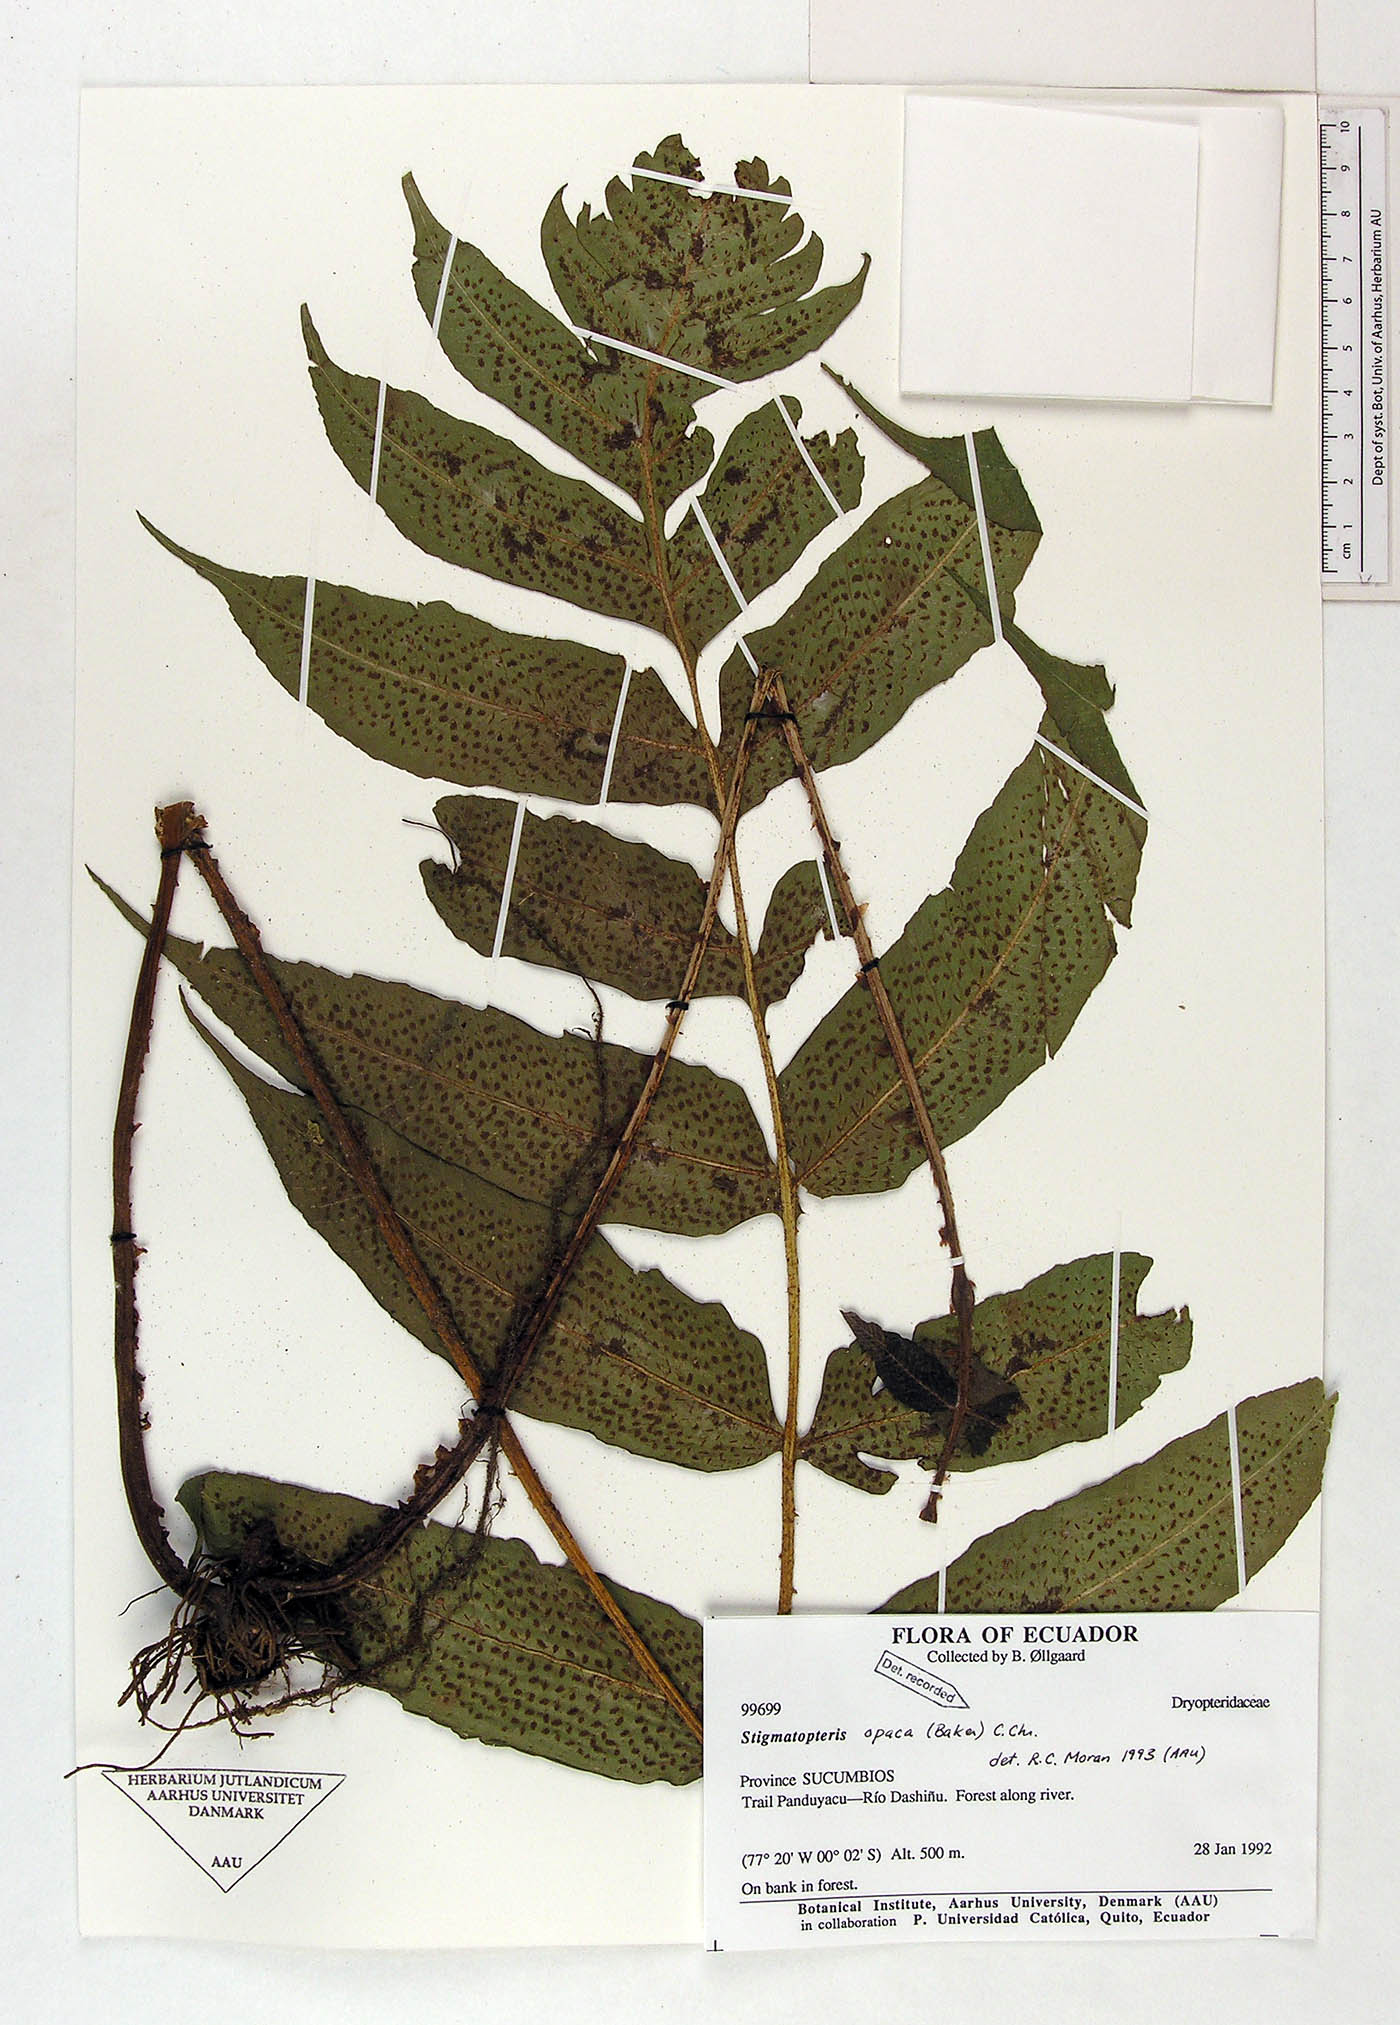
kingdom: Plantae
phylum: Tracheophyta
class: Polypodiopsida
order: Polypodiales
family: Dryopteridaceae
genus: Stigmatopteris
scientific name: Stigmatopteris opaca
